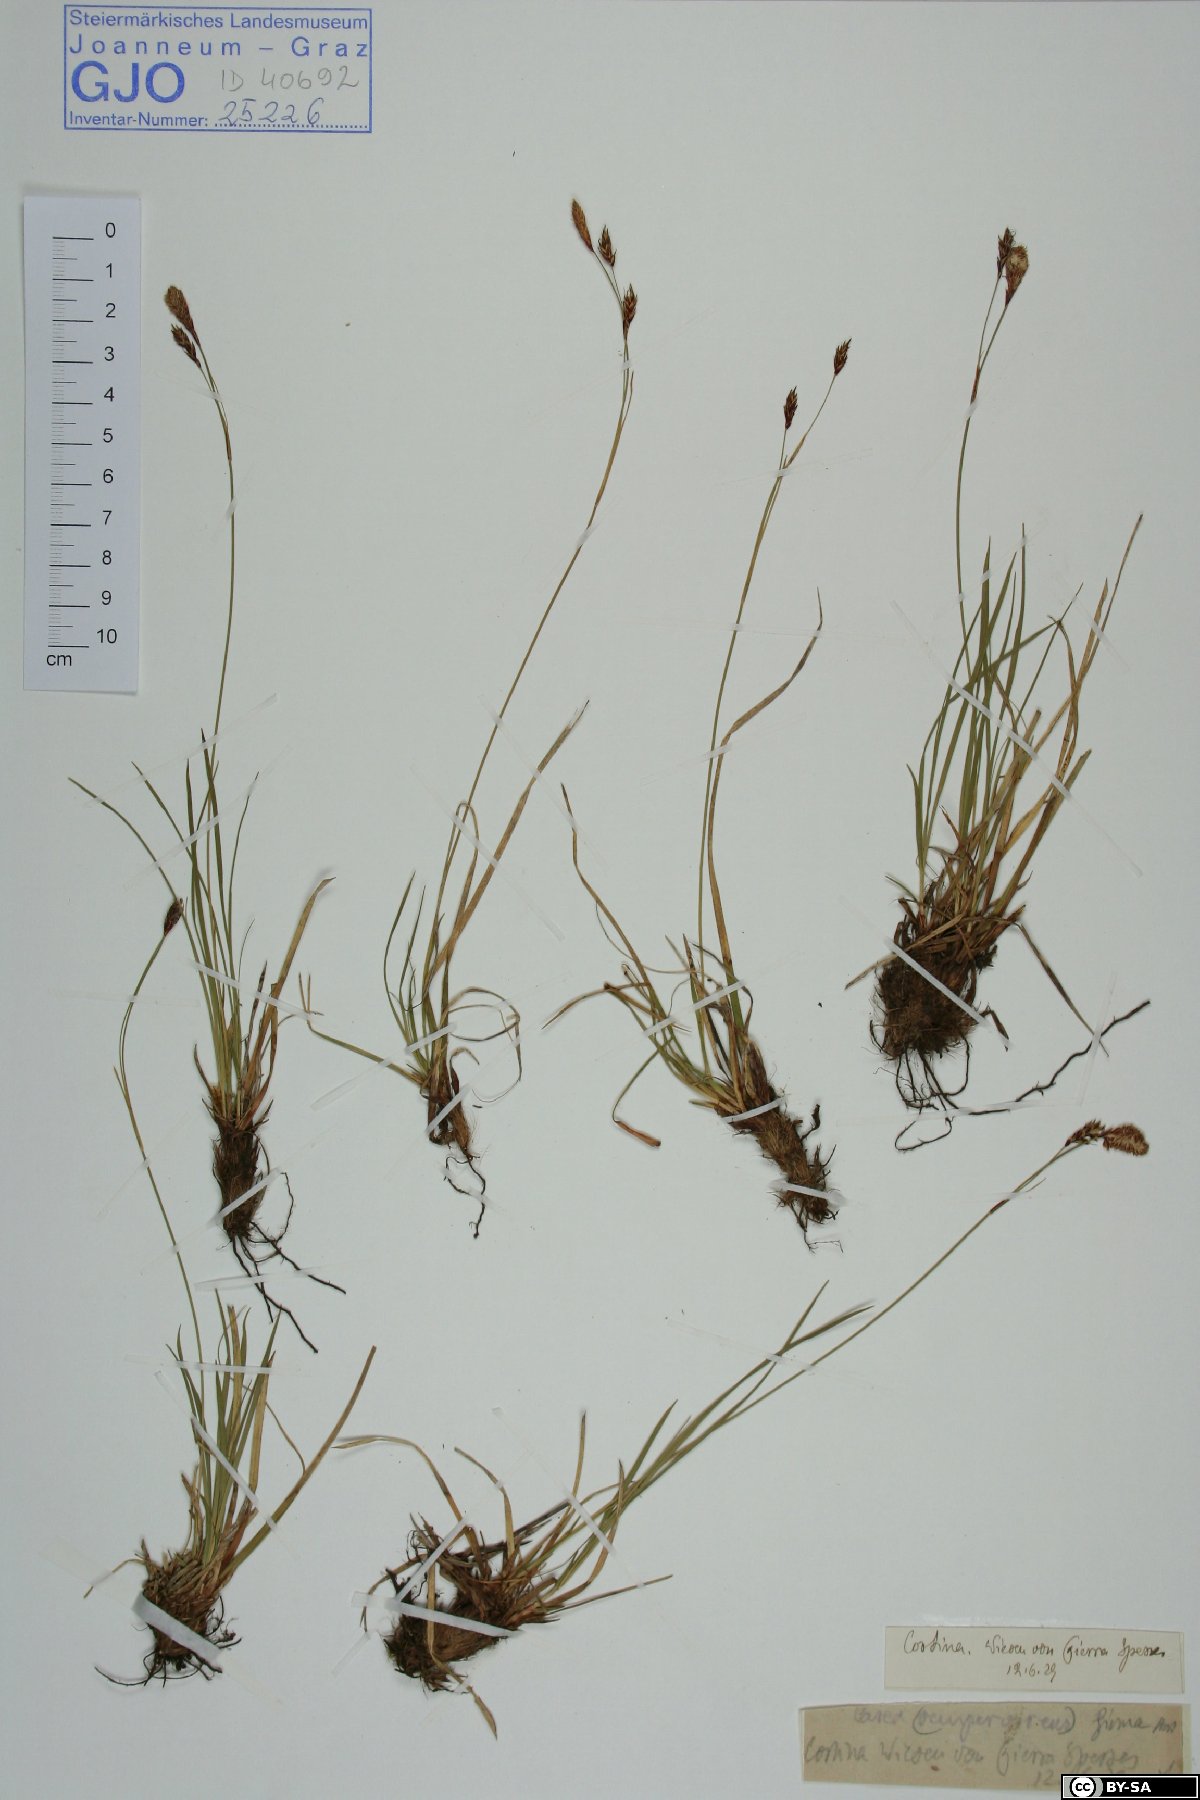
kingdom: Plantae
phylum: Tracheophyta
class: Liliopsida
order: Poales
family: Cyperaceae
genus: Carex
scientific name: Carex firma
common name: Dwarf pillow sedge
